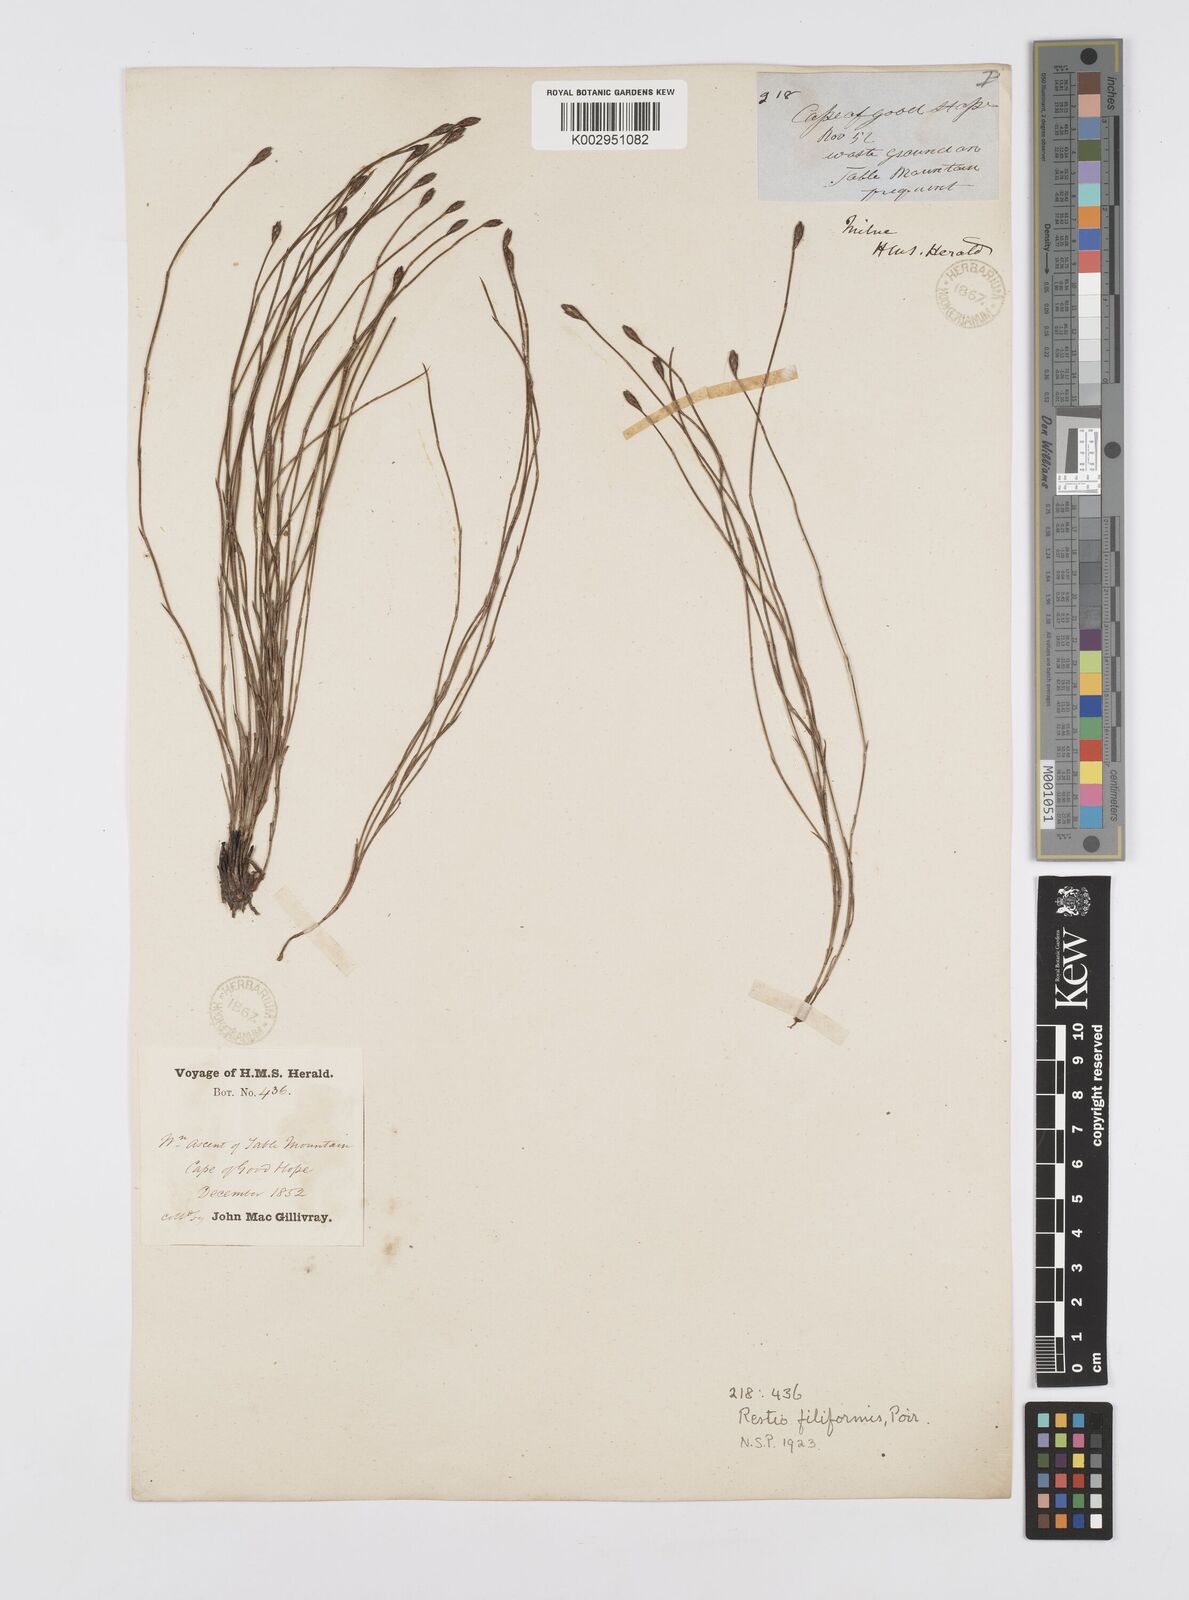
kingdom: Plantae
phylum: Tracheophyta
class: Liliopsida
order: Poales
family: Restionaceae
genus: Restio
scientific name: Restio filiformis
